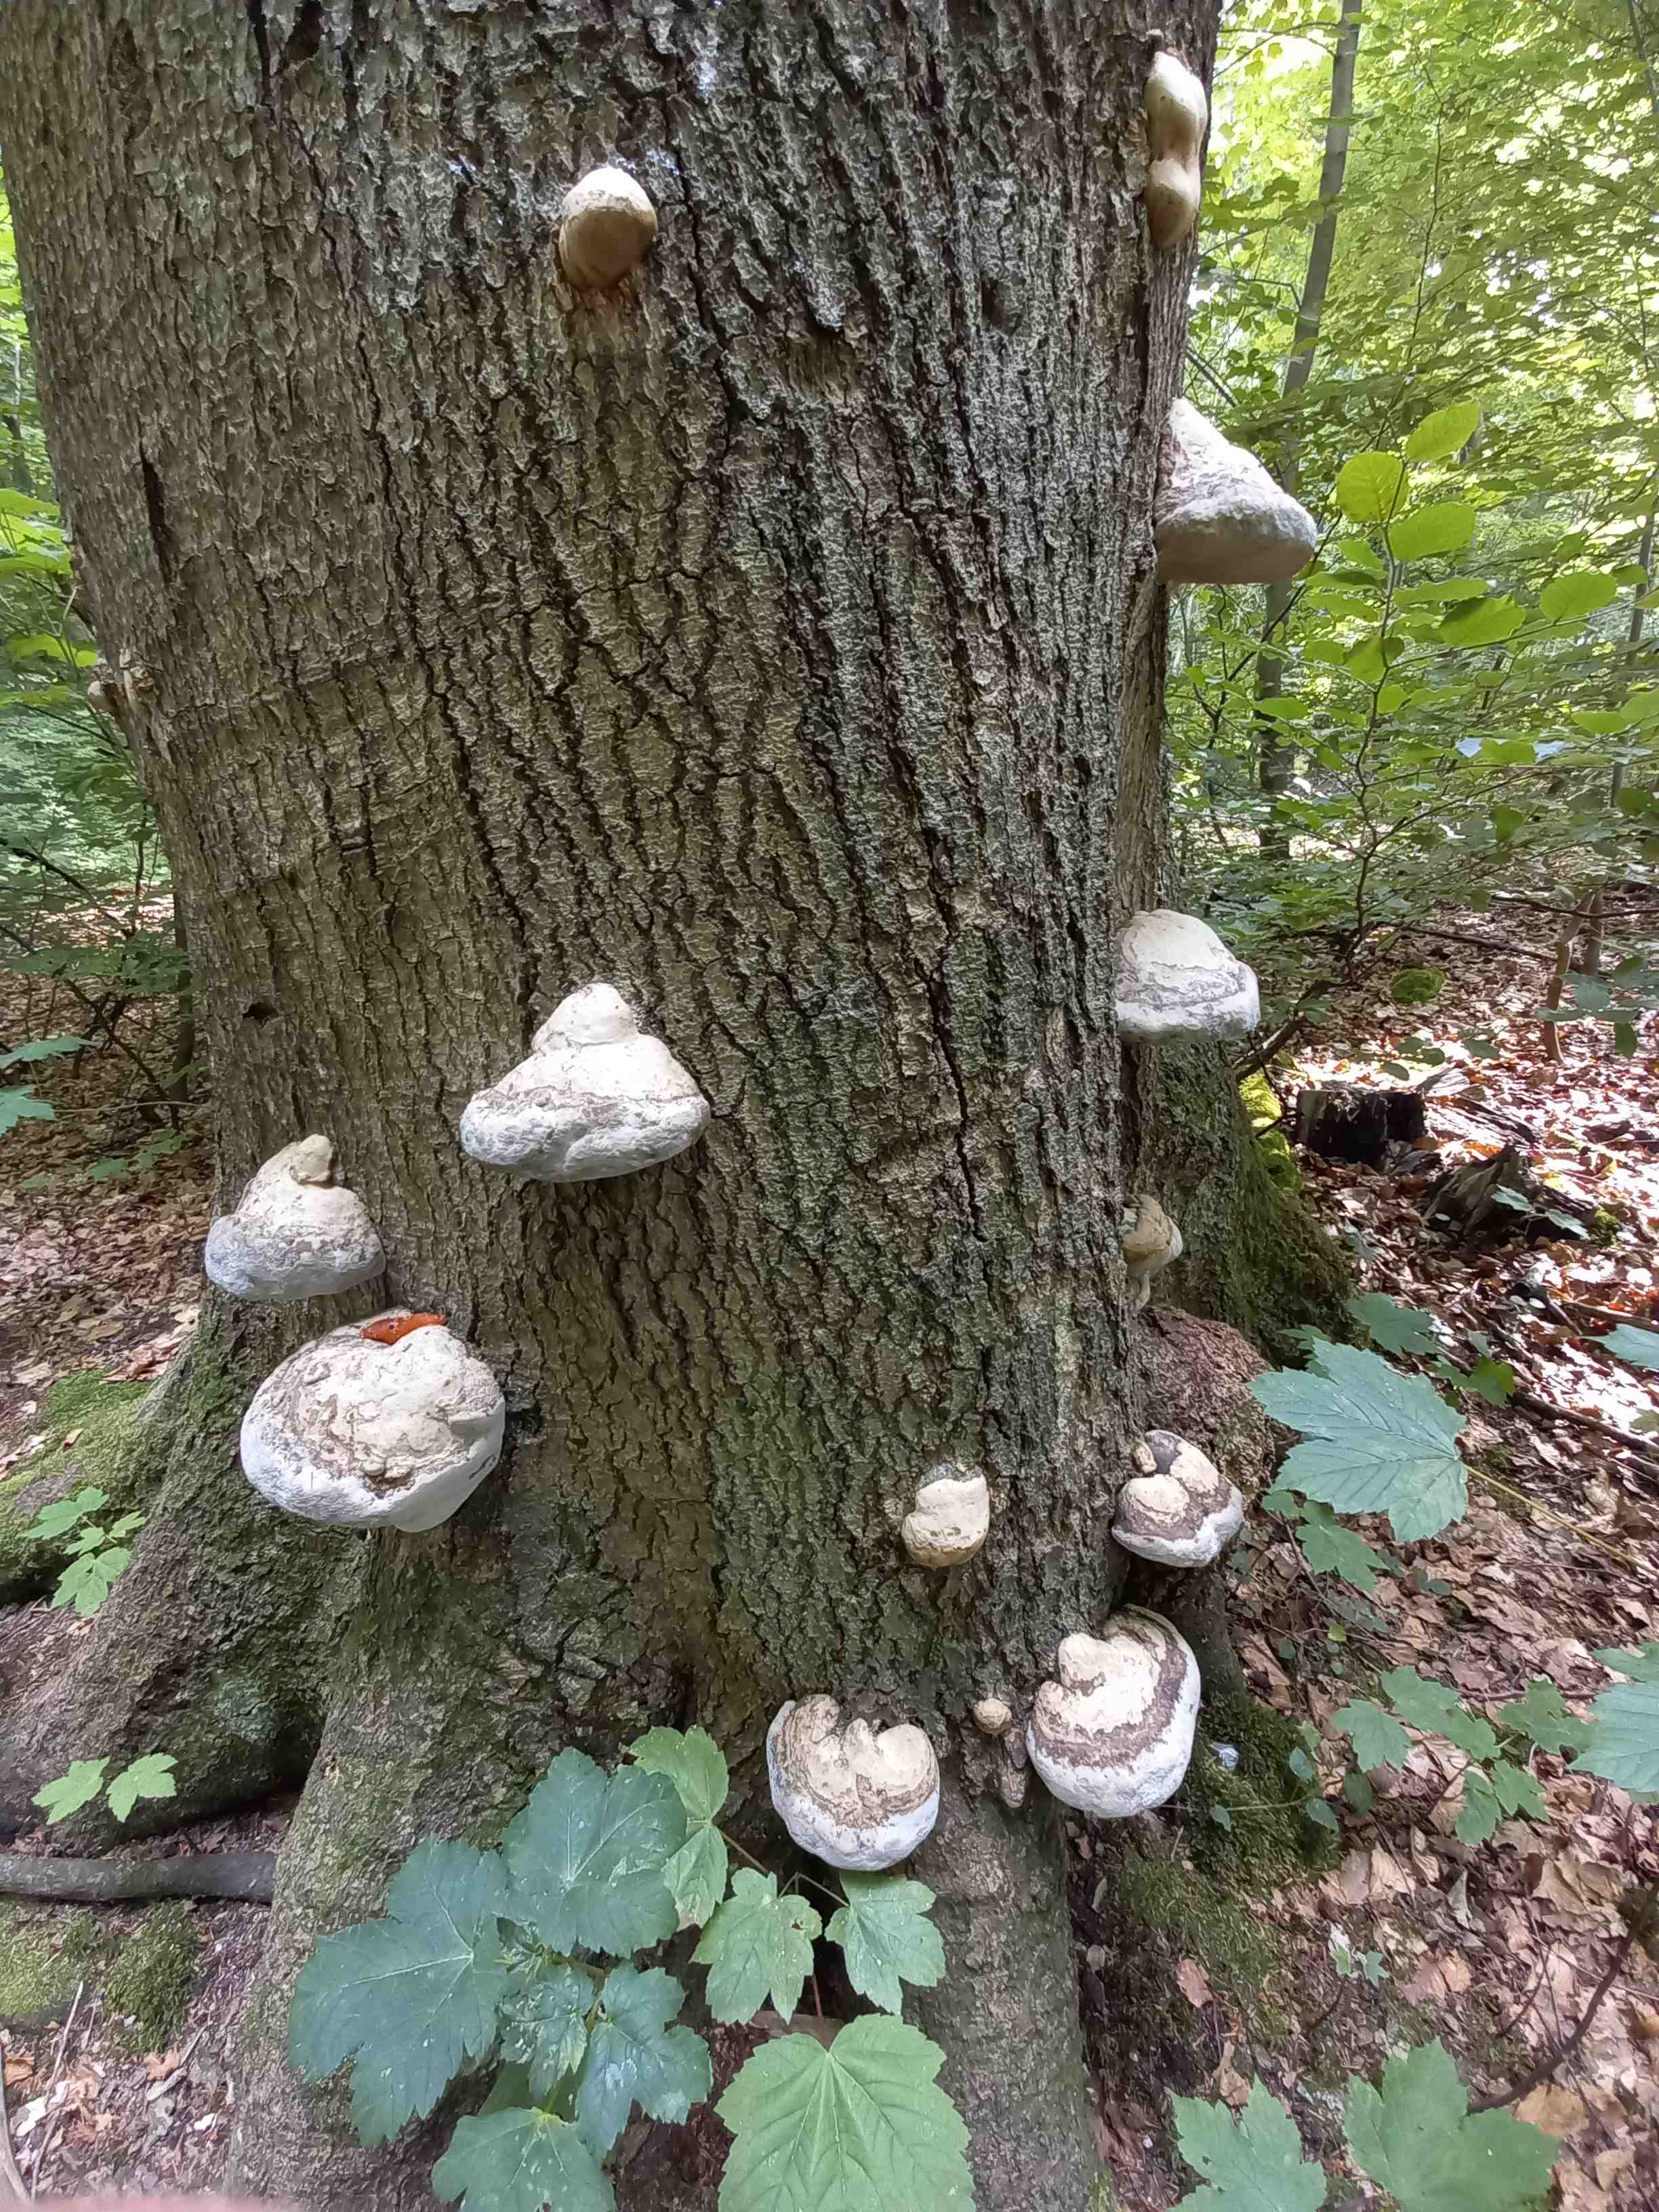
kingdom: Fungi
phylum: Basidiomycota
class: Agaricomycetes
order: Polyporales
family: Polyporaceae
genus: Fomes
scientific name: Fomes fomentarius
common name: tøndersvamp
